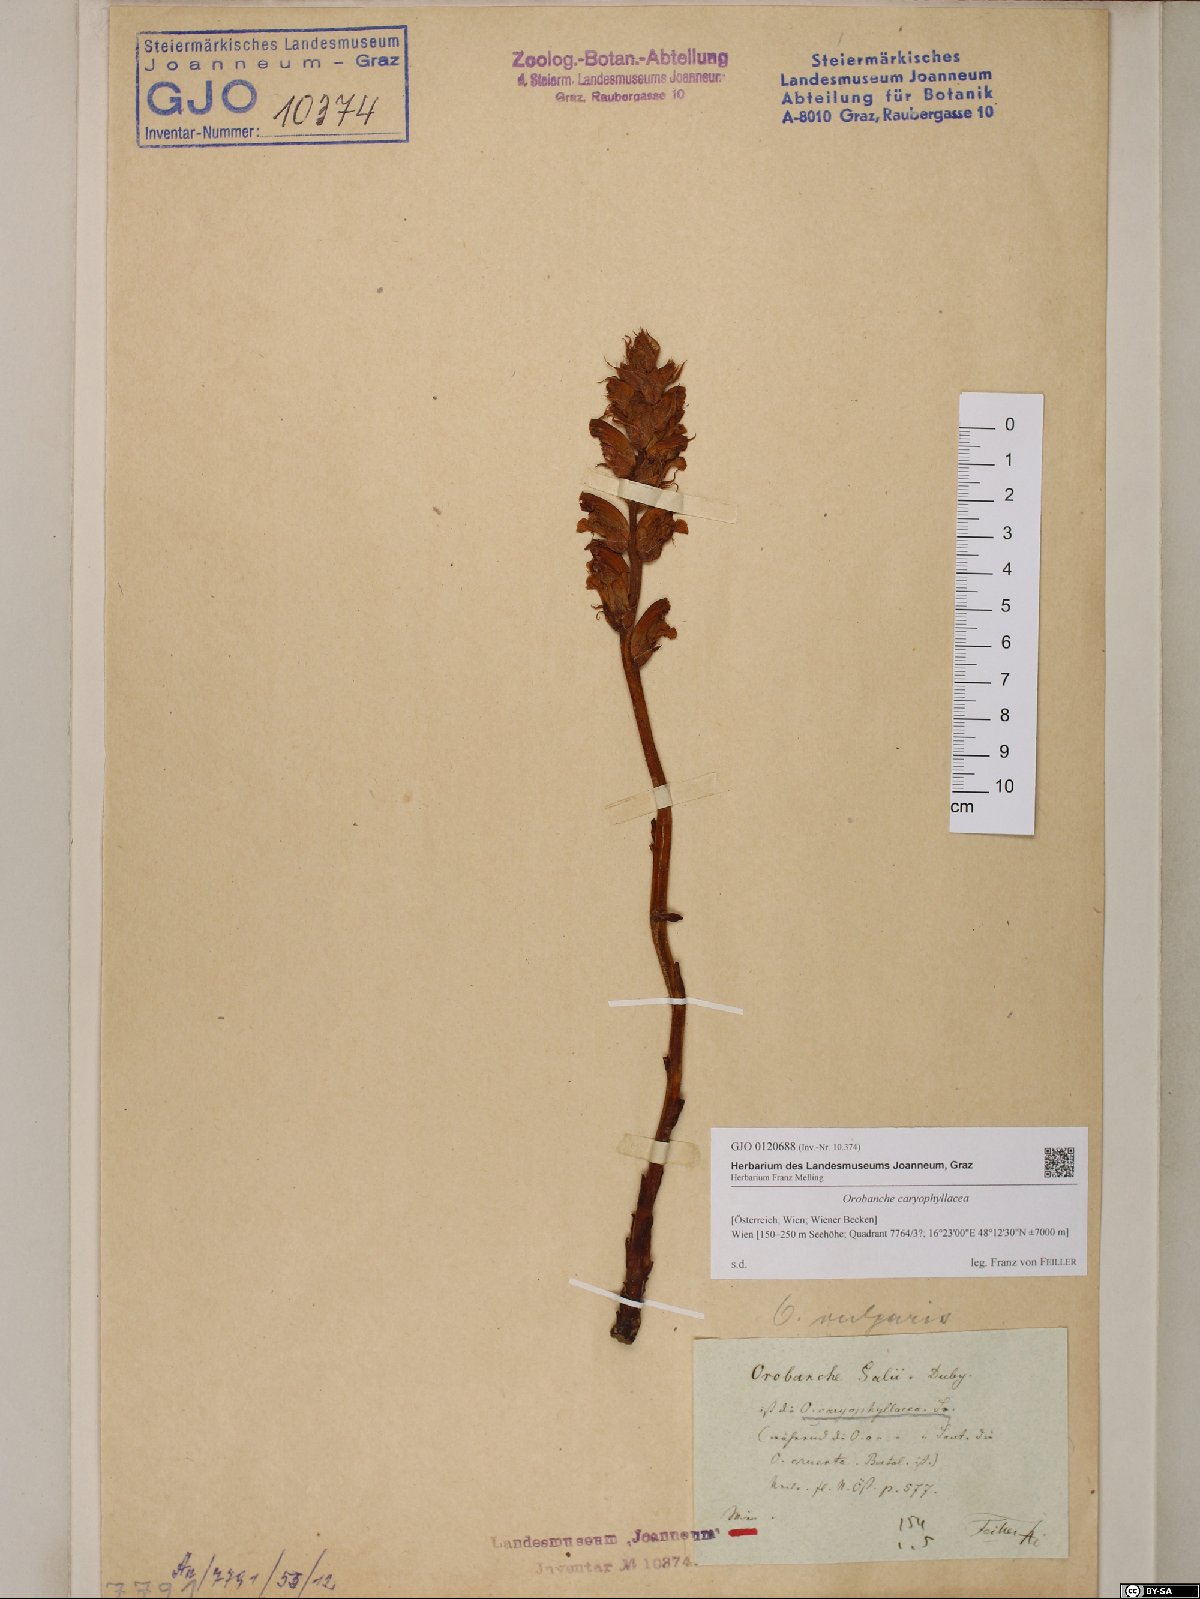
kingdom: Plantae
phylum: Tracheophyta
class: Magnoliopsida
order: Lamiales
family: Orobanchaceae
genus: Orobanche
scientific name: Orobanche caryophyllacea
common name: Bedstraw broomrape
